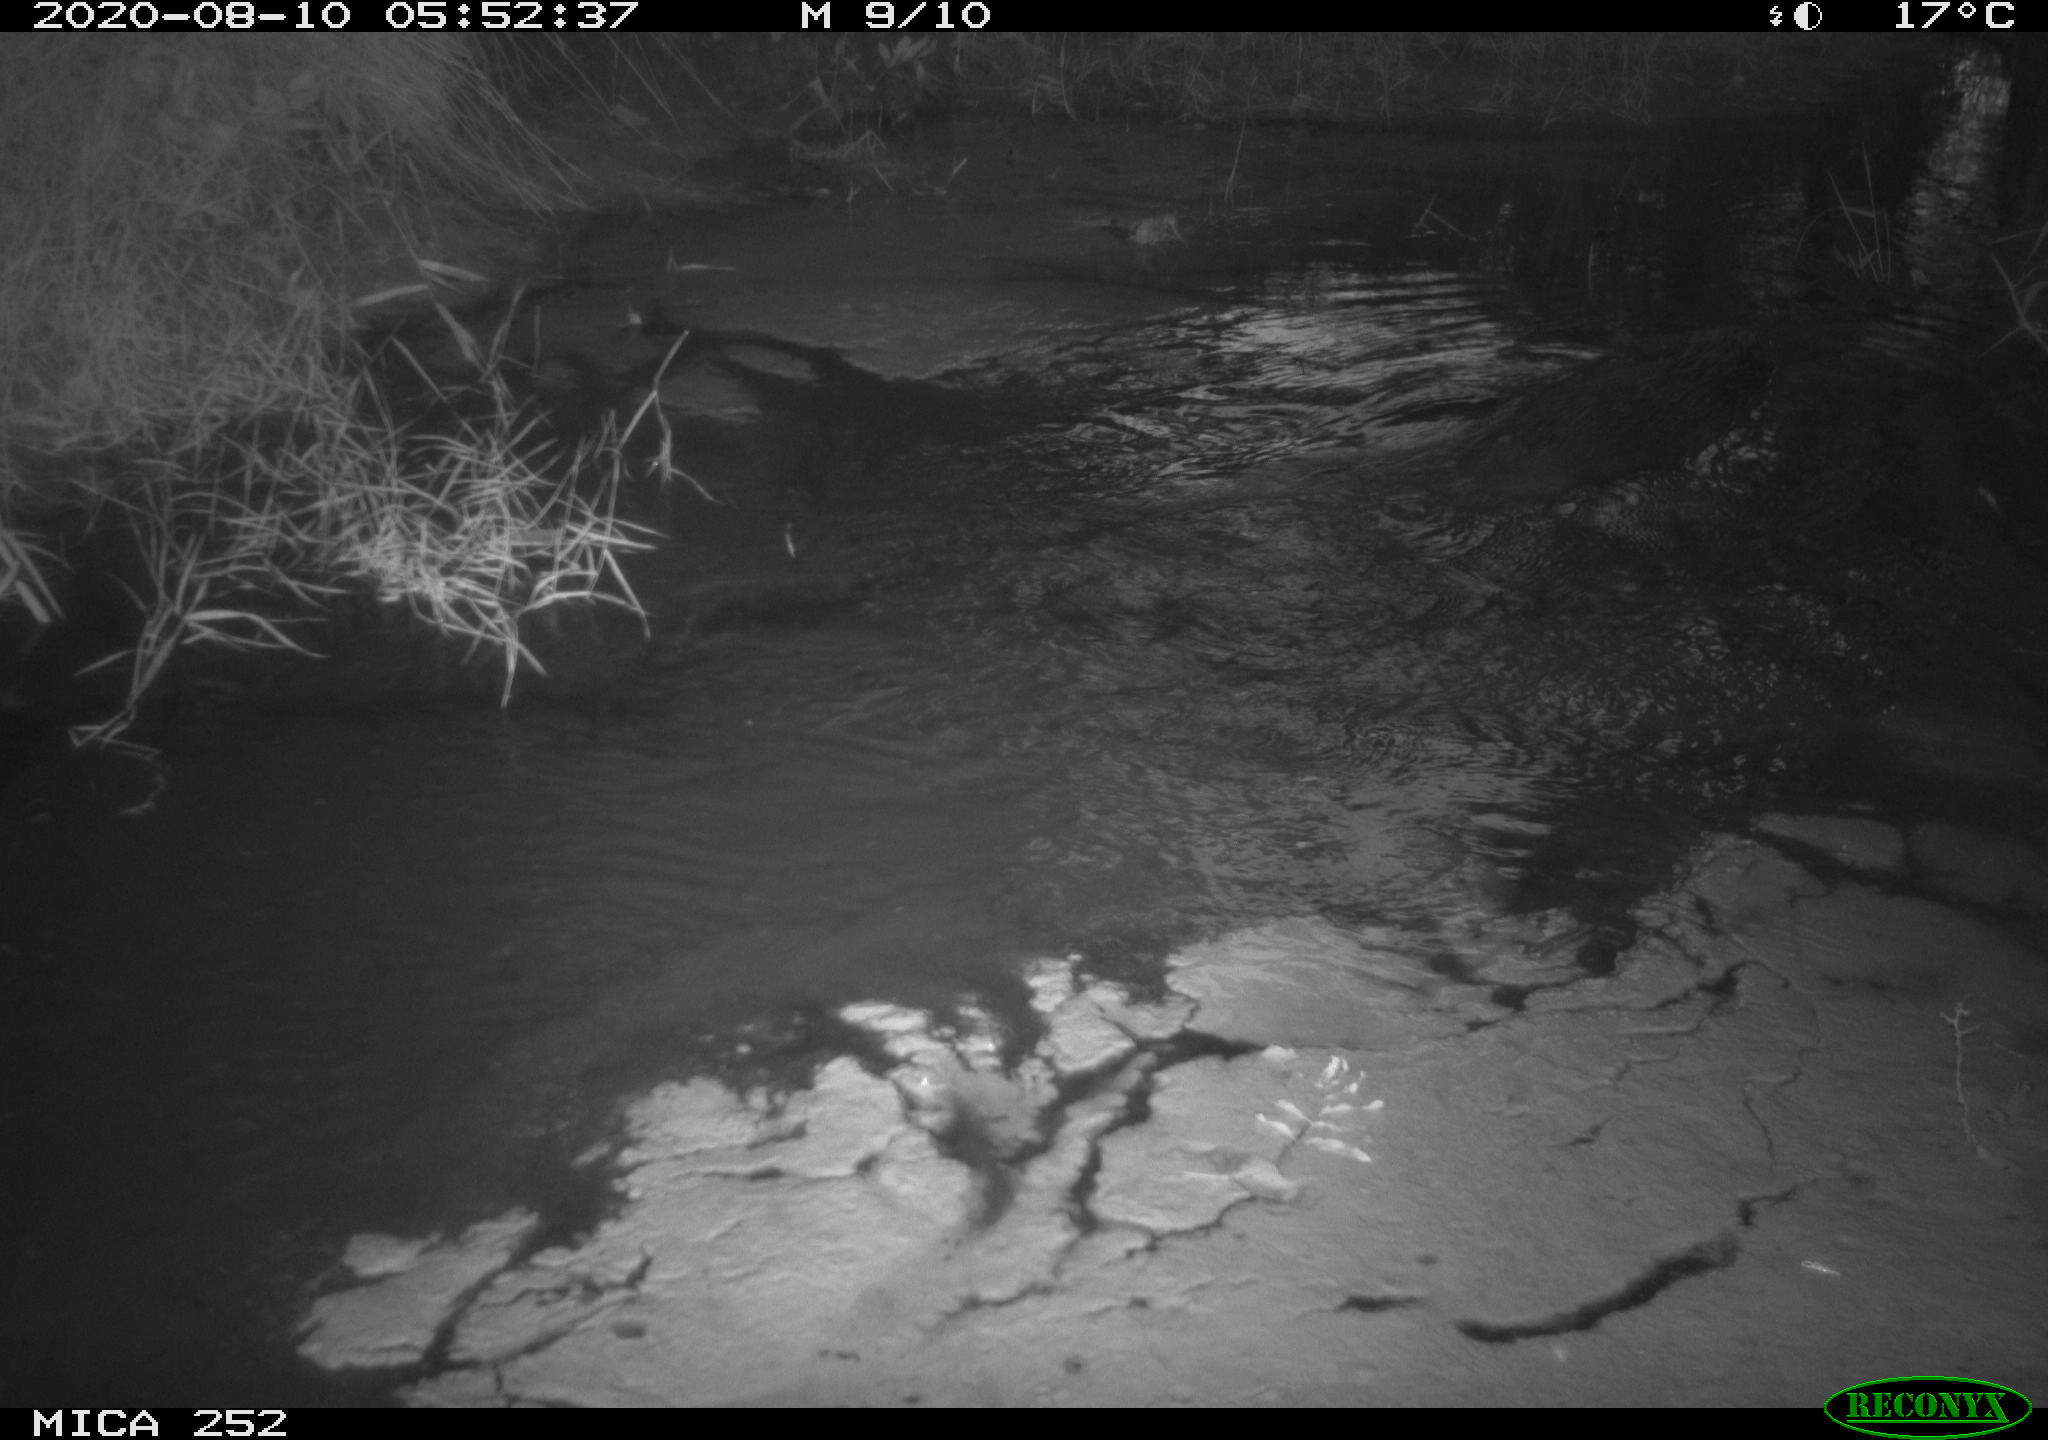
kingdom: Animalia
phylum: Chordata
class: Mammalia
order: Rodentia
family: Castoridae
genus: Castor
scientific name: Castor fiber
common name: Eurasian beaver
